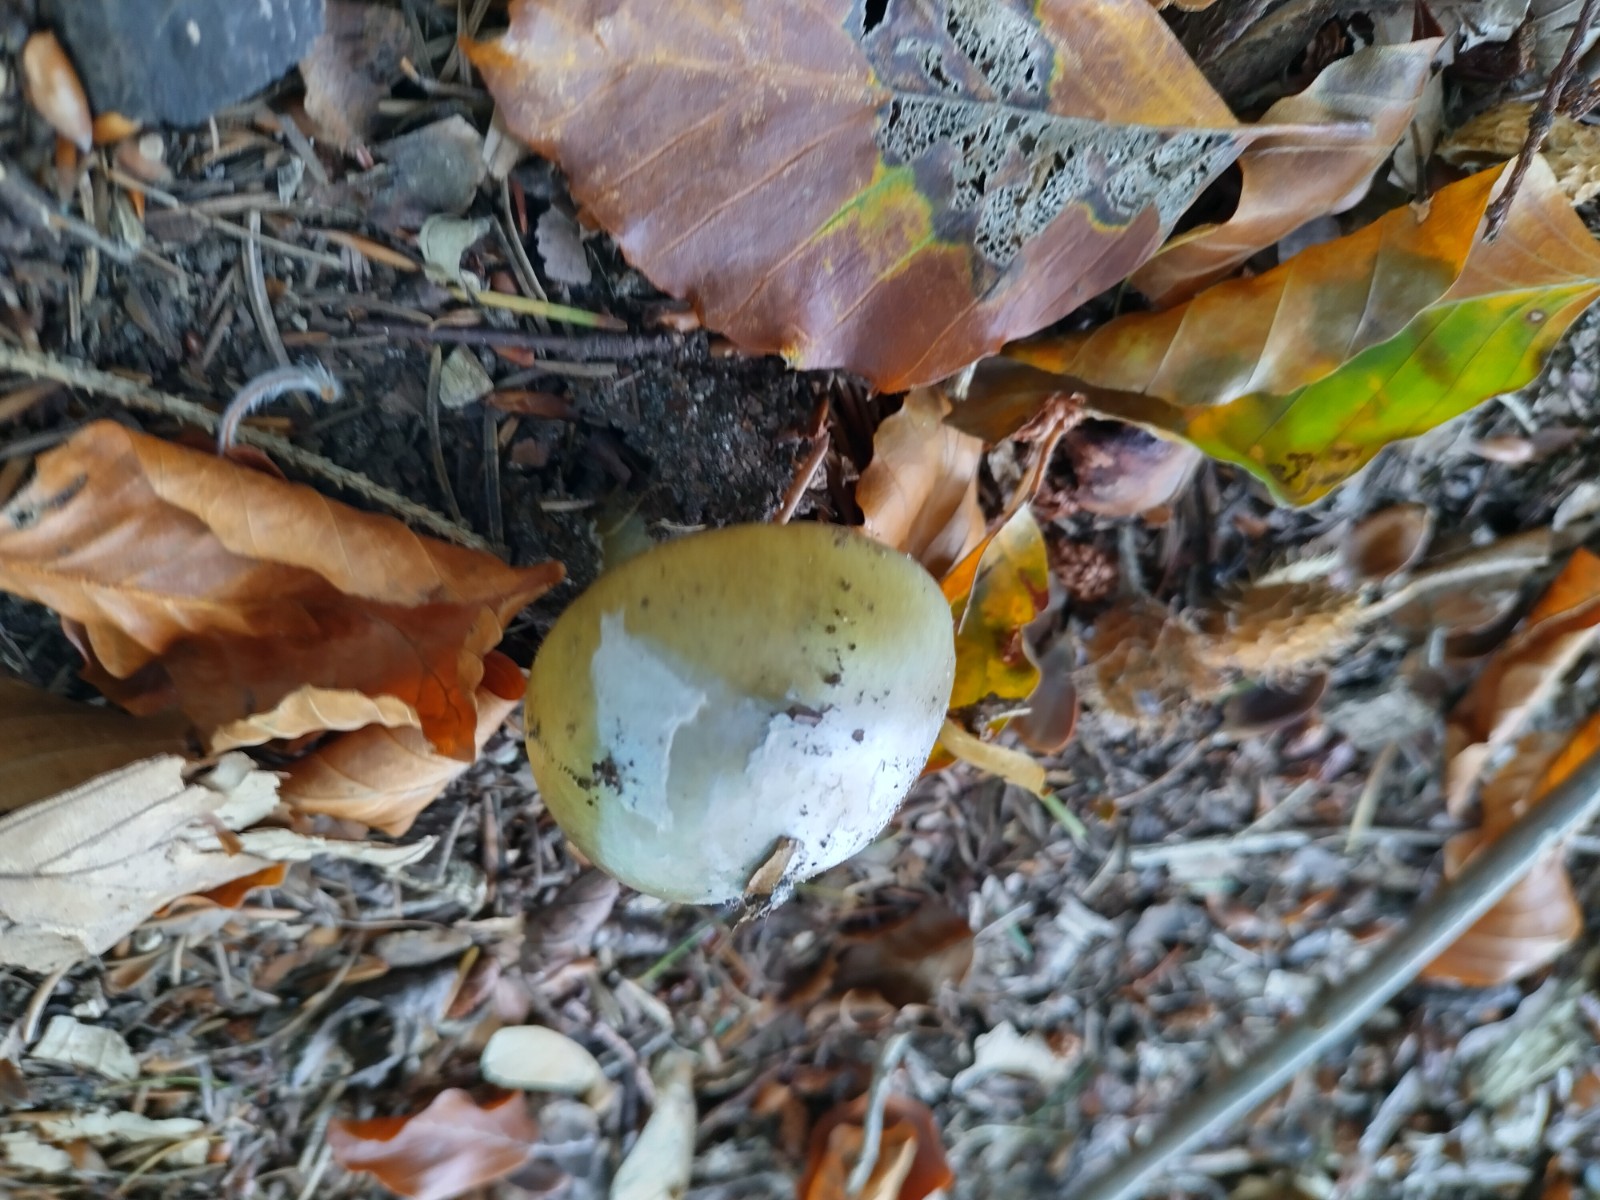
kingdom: Fungi
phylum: Basidiomycota
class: Agaricomycetes
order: Agaricales
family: Amanitaceae
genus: Amanita
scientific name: Amanita phalloides
